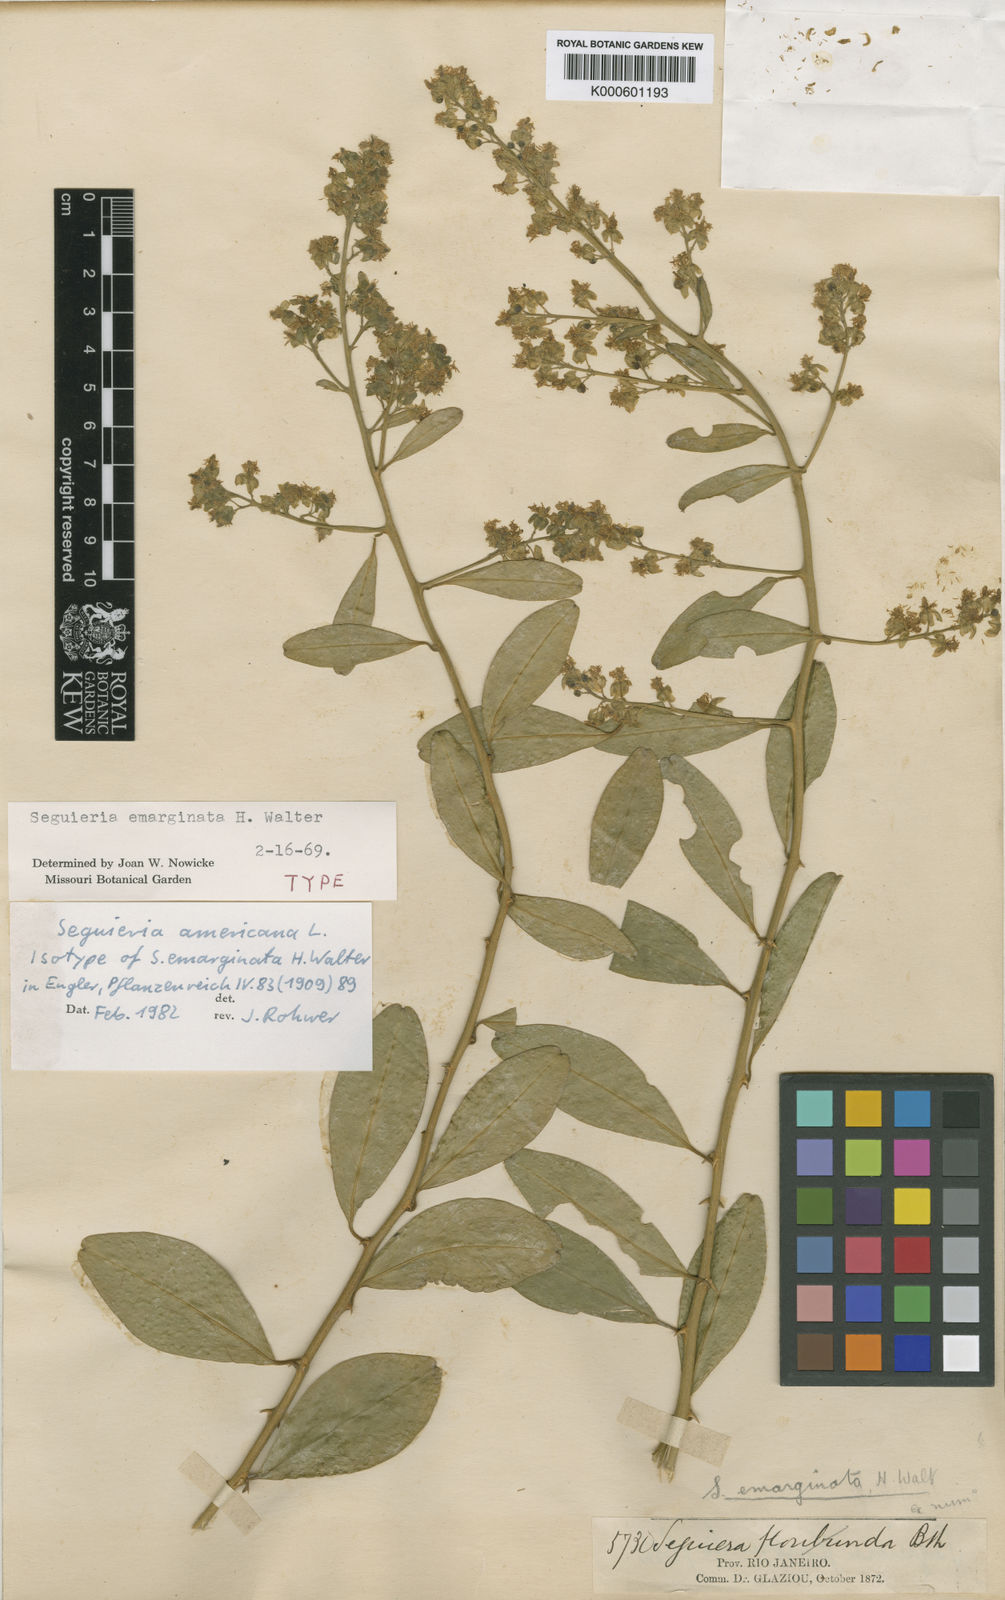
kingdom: Plantae
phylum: Tracheophyta
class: Magnoliopsida
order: Caryophyllales
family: Phytolaccaceae
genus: Seguieria
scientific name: Seguieria americana
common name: American seguieria
